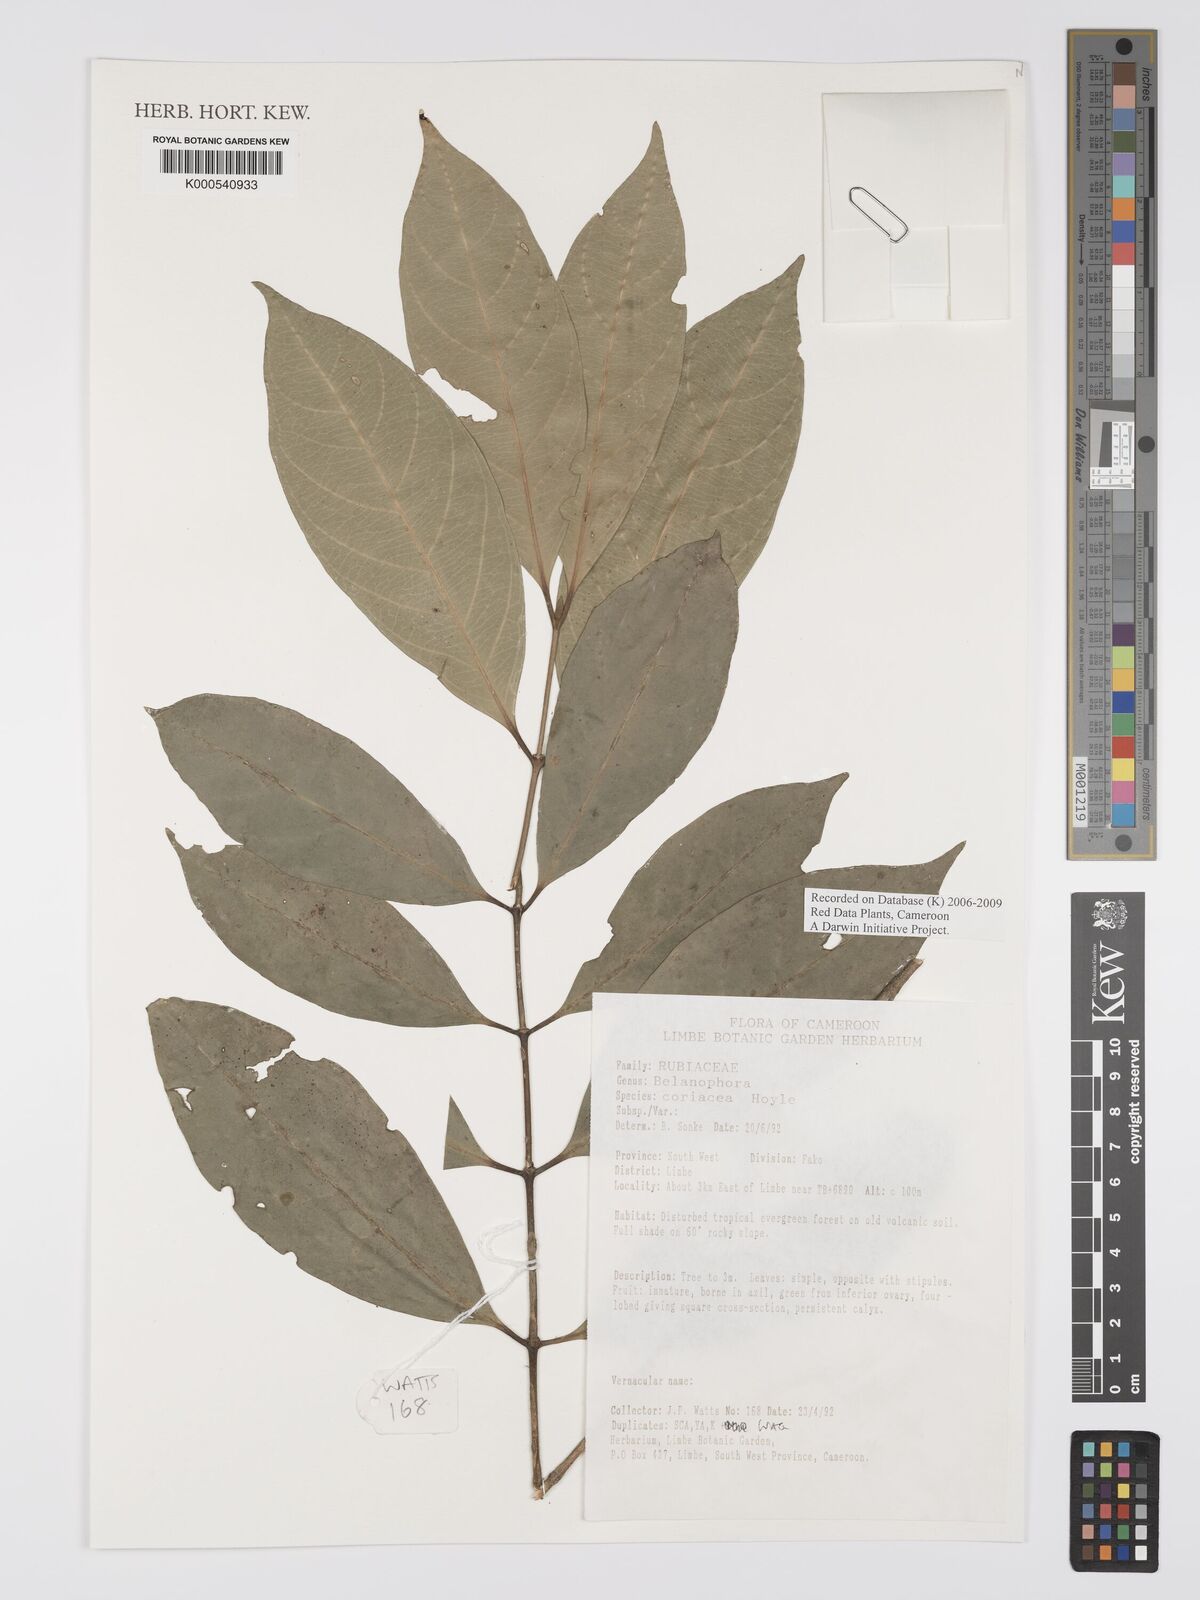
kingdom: Plantae
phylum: Tracheophyta
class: Magnoliopsida
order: Gentianales
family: Rubiaceae
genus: Belonophora
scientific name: Belonophora coriacea
